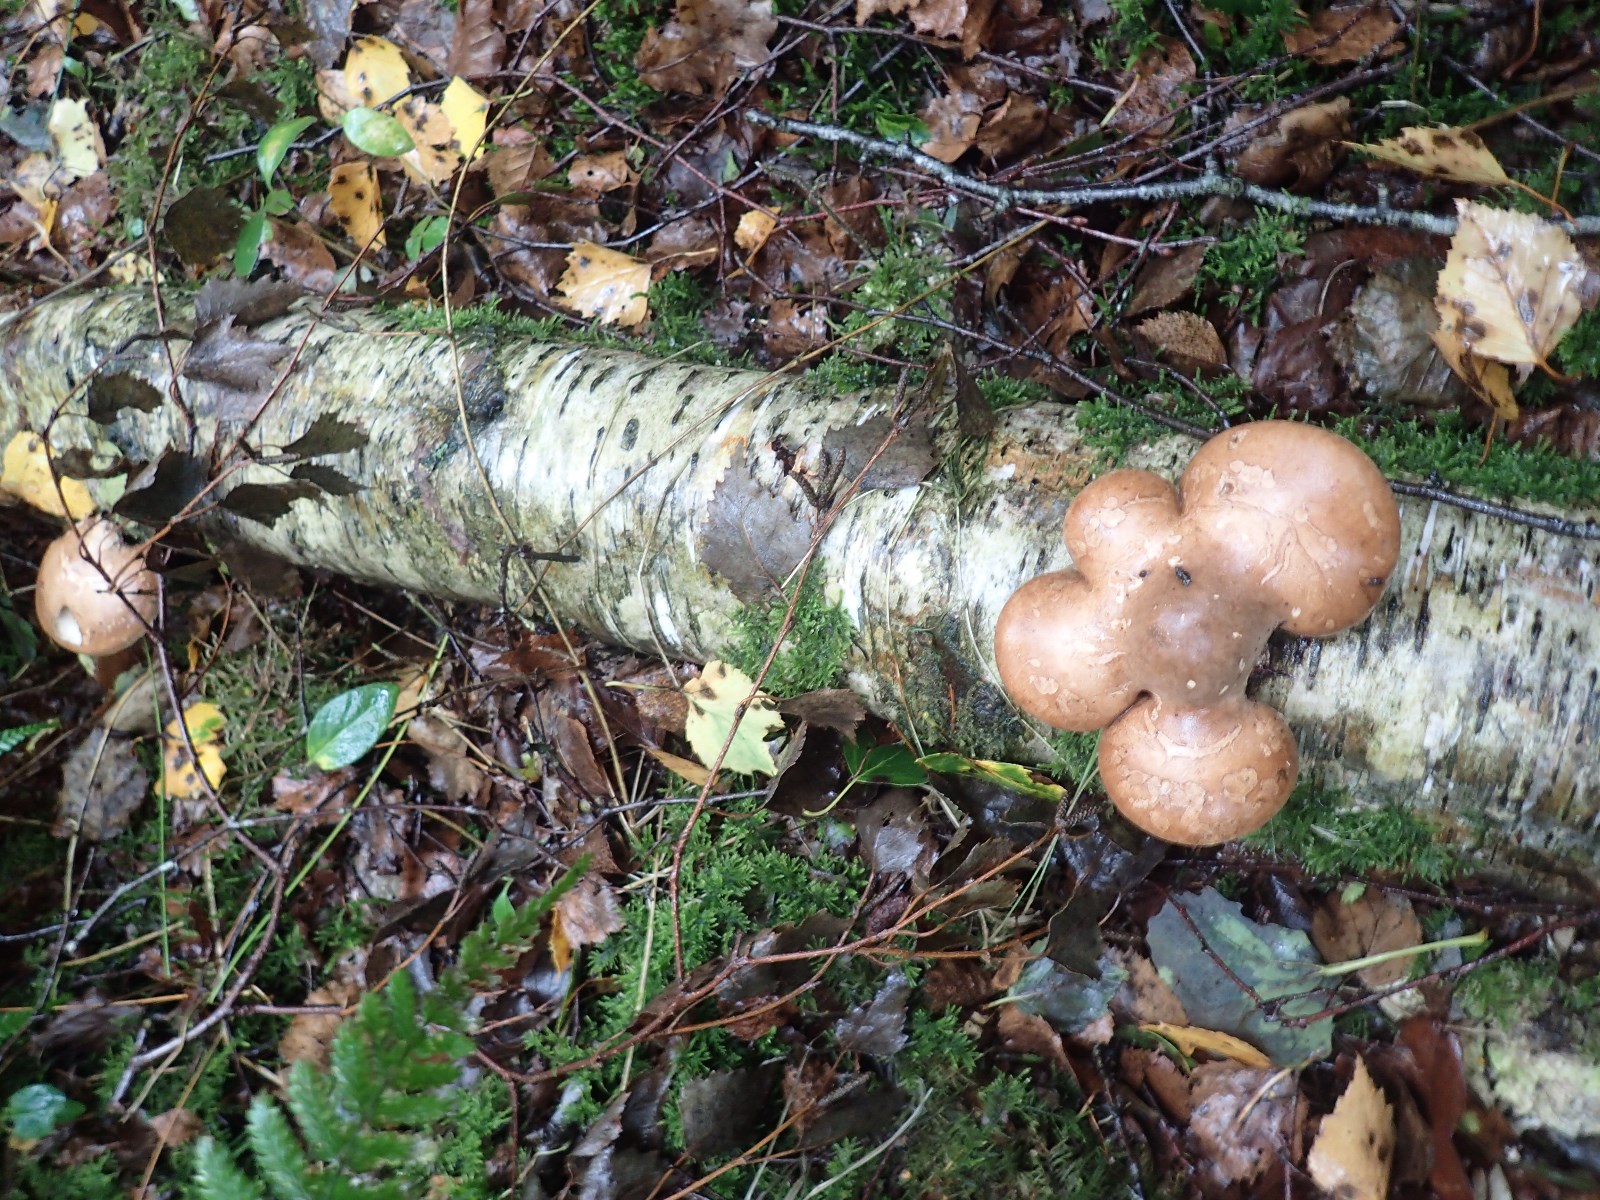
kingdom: Fungi
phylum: Basidiomycota
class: Agaricomycetes
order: Polyporales
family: Fomitopsidaceae
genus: Fomitopsis
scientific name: Fomitopsis betulina
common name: birkeporesvamp
